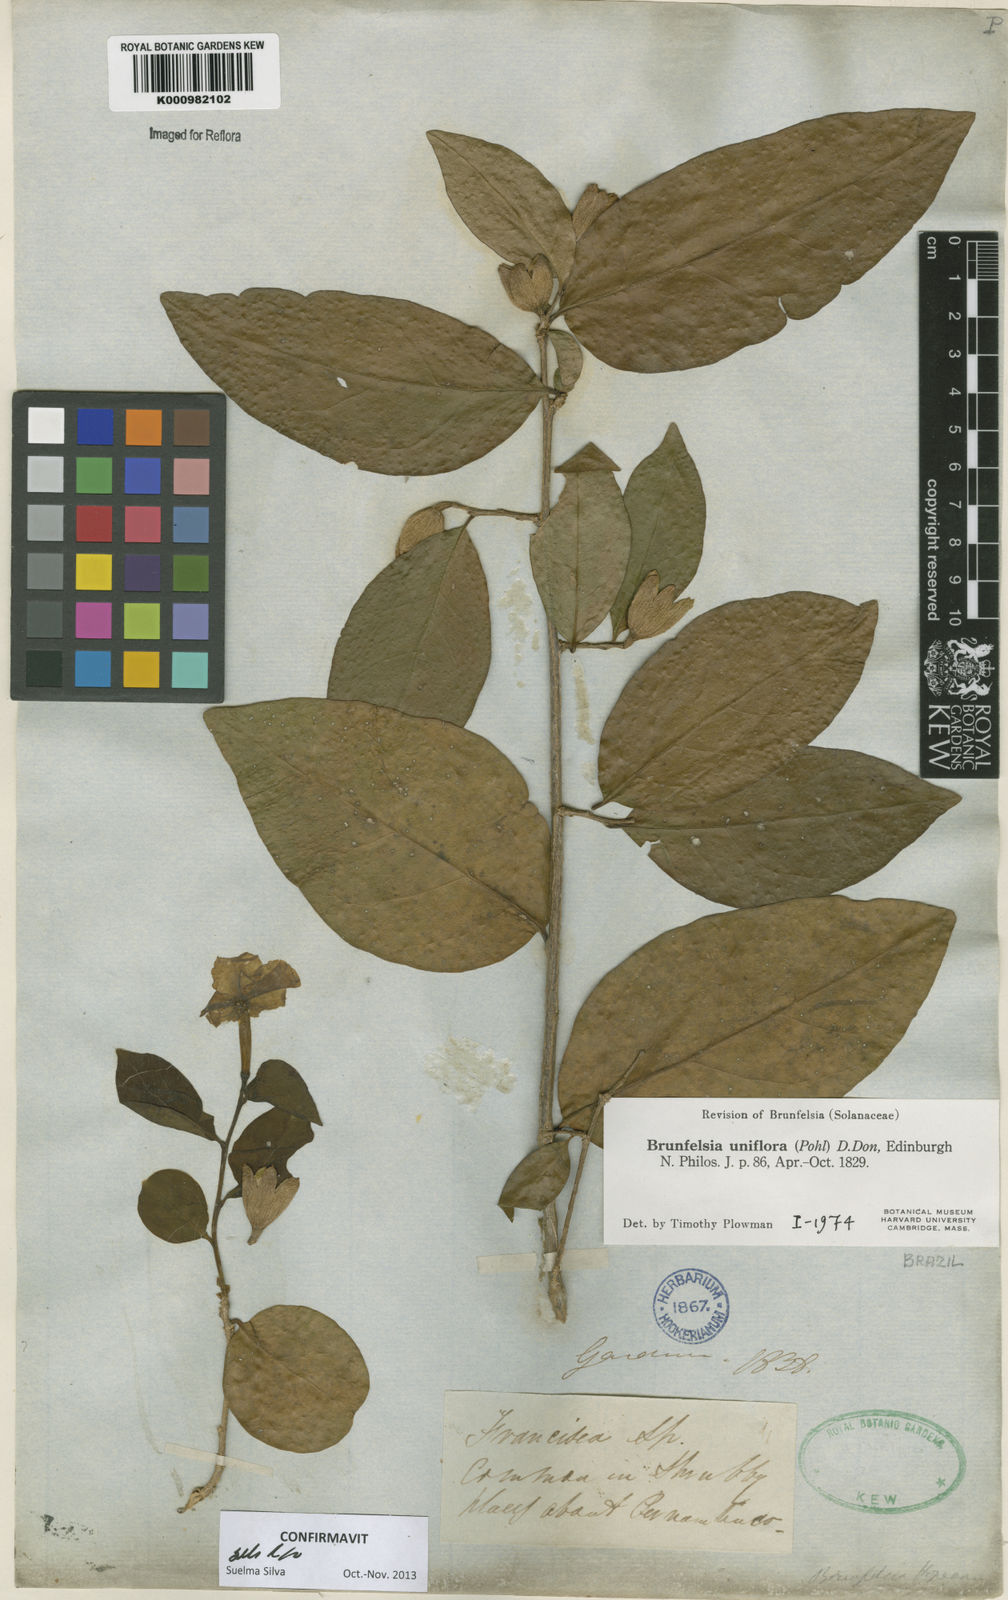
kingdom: Plantae
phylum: Tracheophyta
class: Magnoliopsida
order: Solanales
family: Solanaceae
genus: Brunfelsia
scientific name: Brunfelsia uniflora
